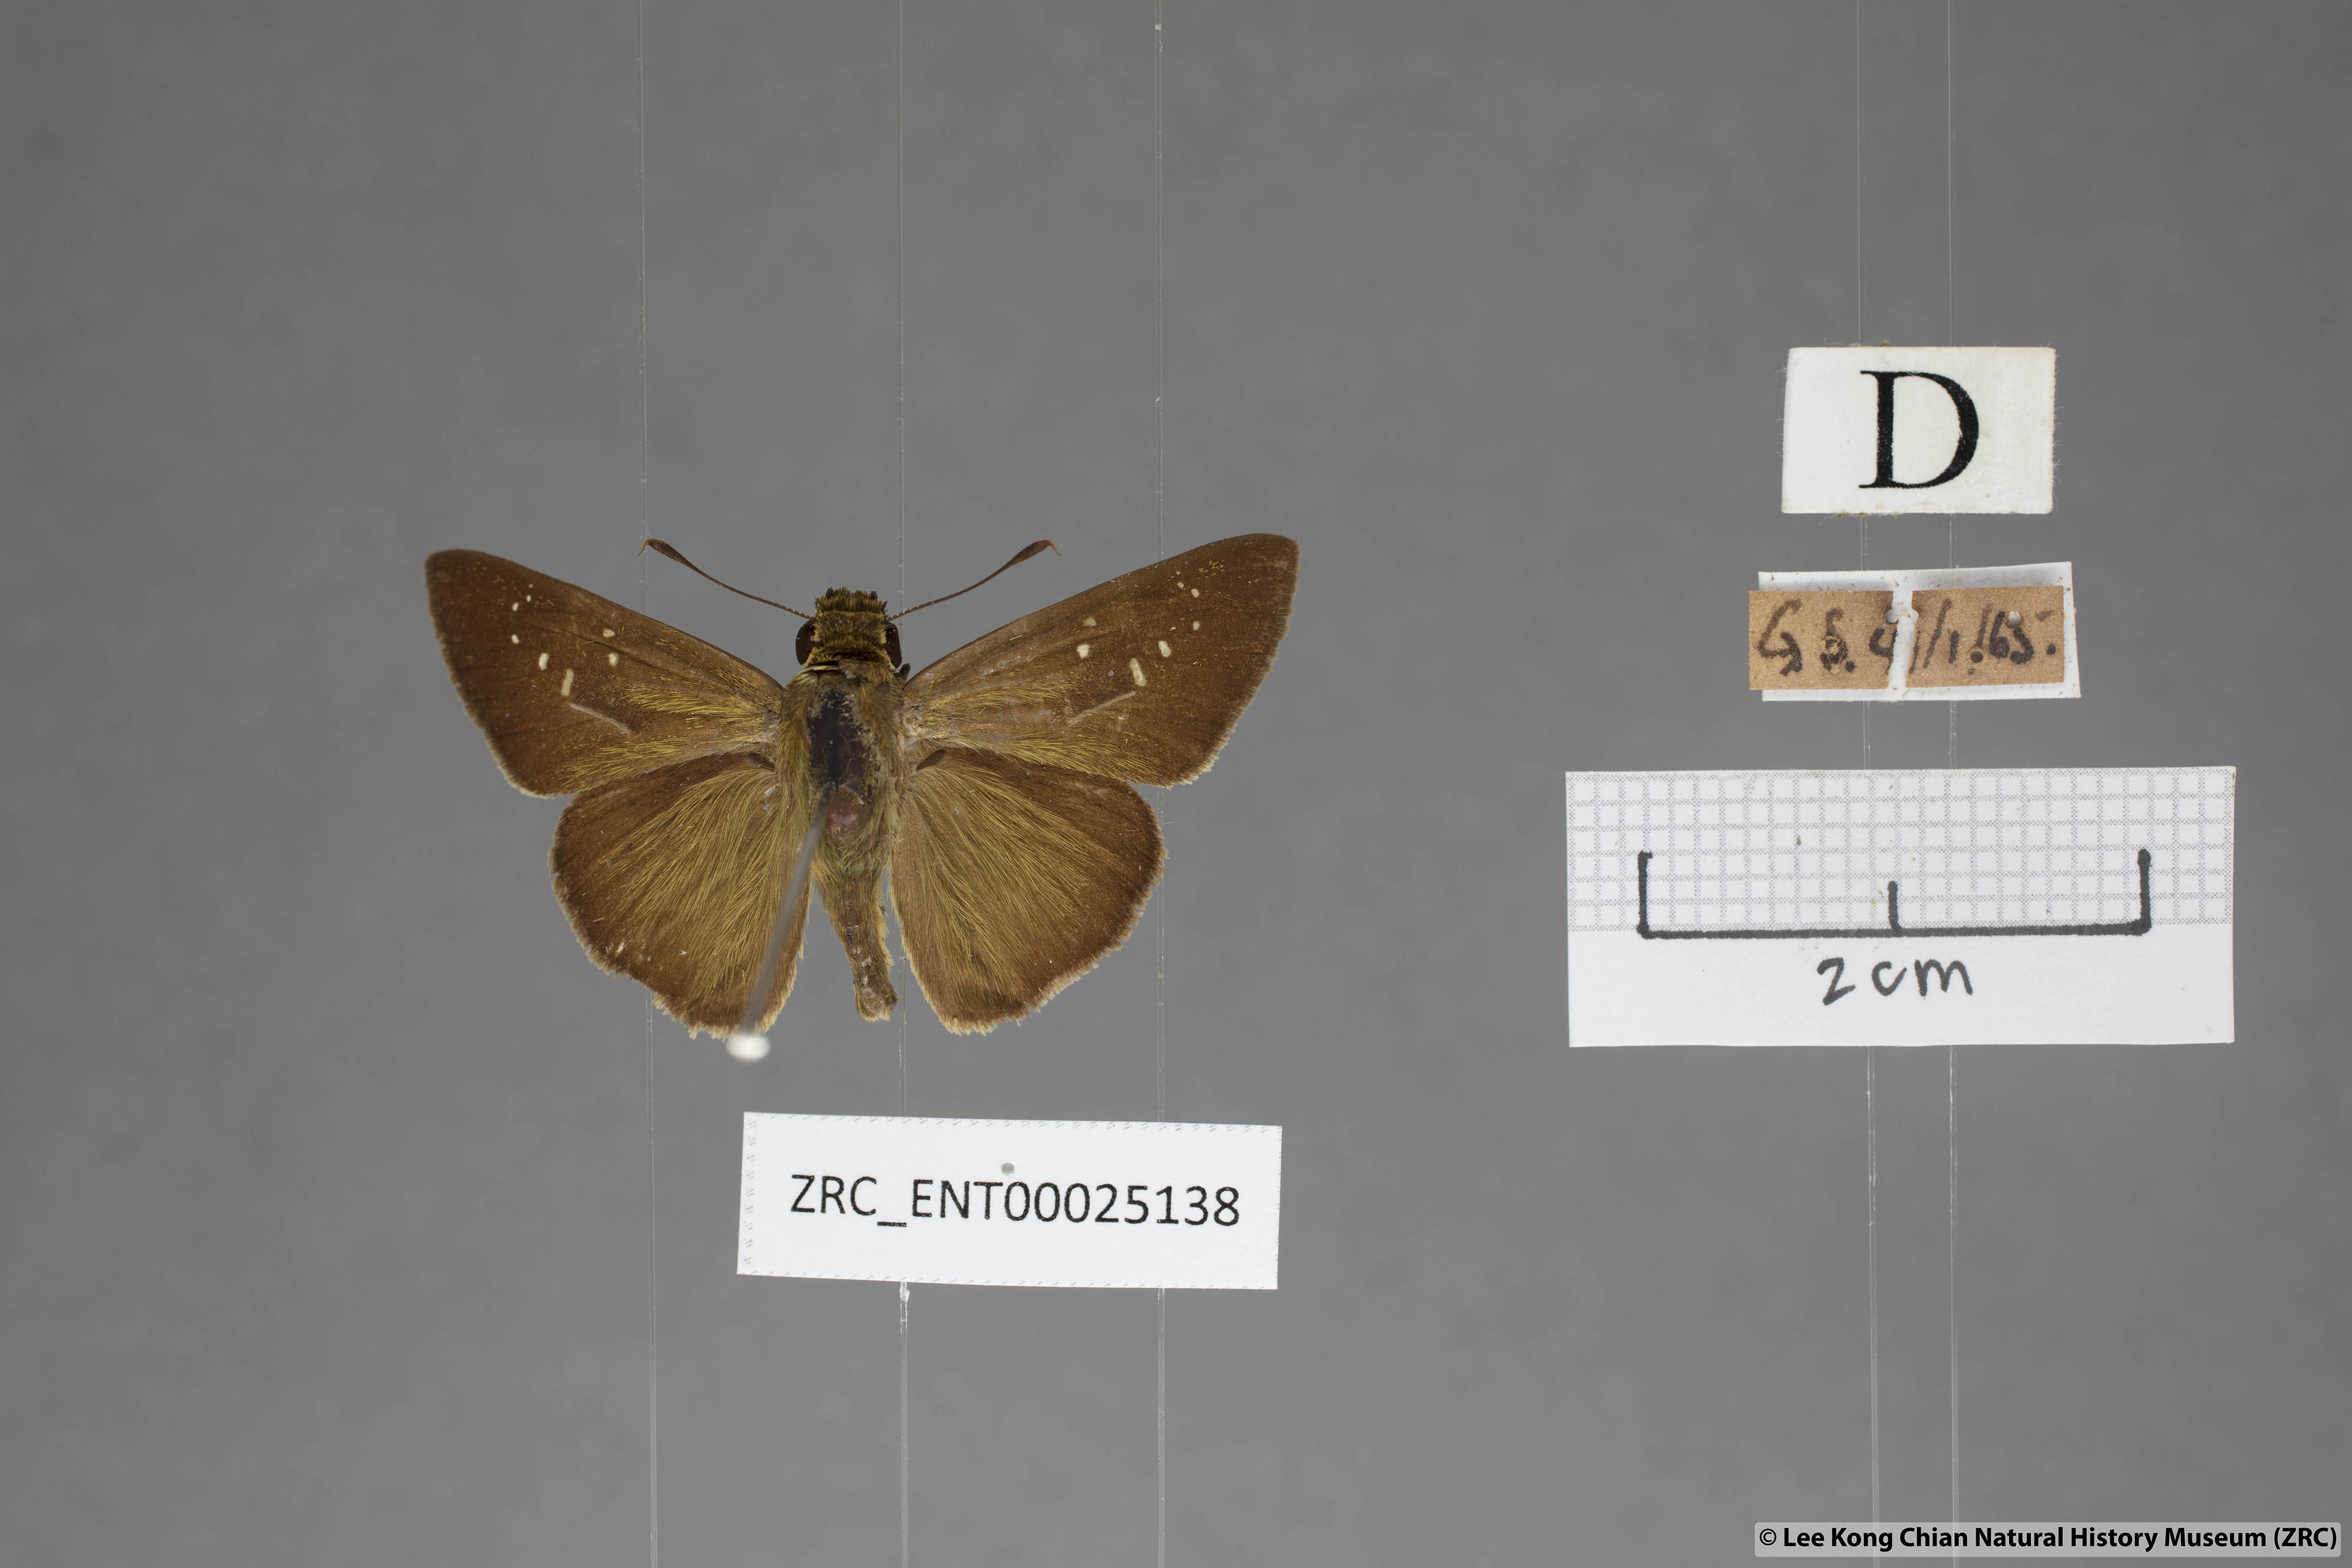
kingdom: Animalia
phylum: Arthropoda
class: Insecta
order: Lepidoptera
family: Hesperiidae
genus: Pelopidas
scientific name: Pelopidas agna
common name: Little branded swift
